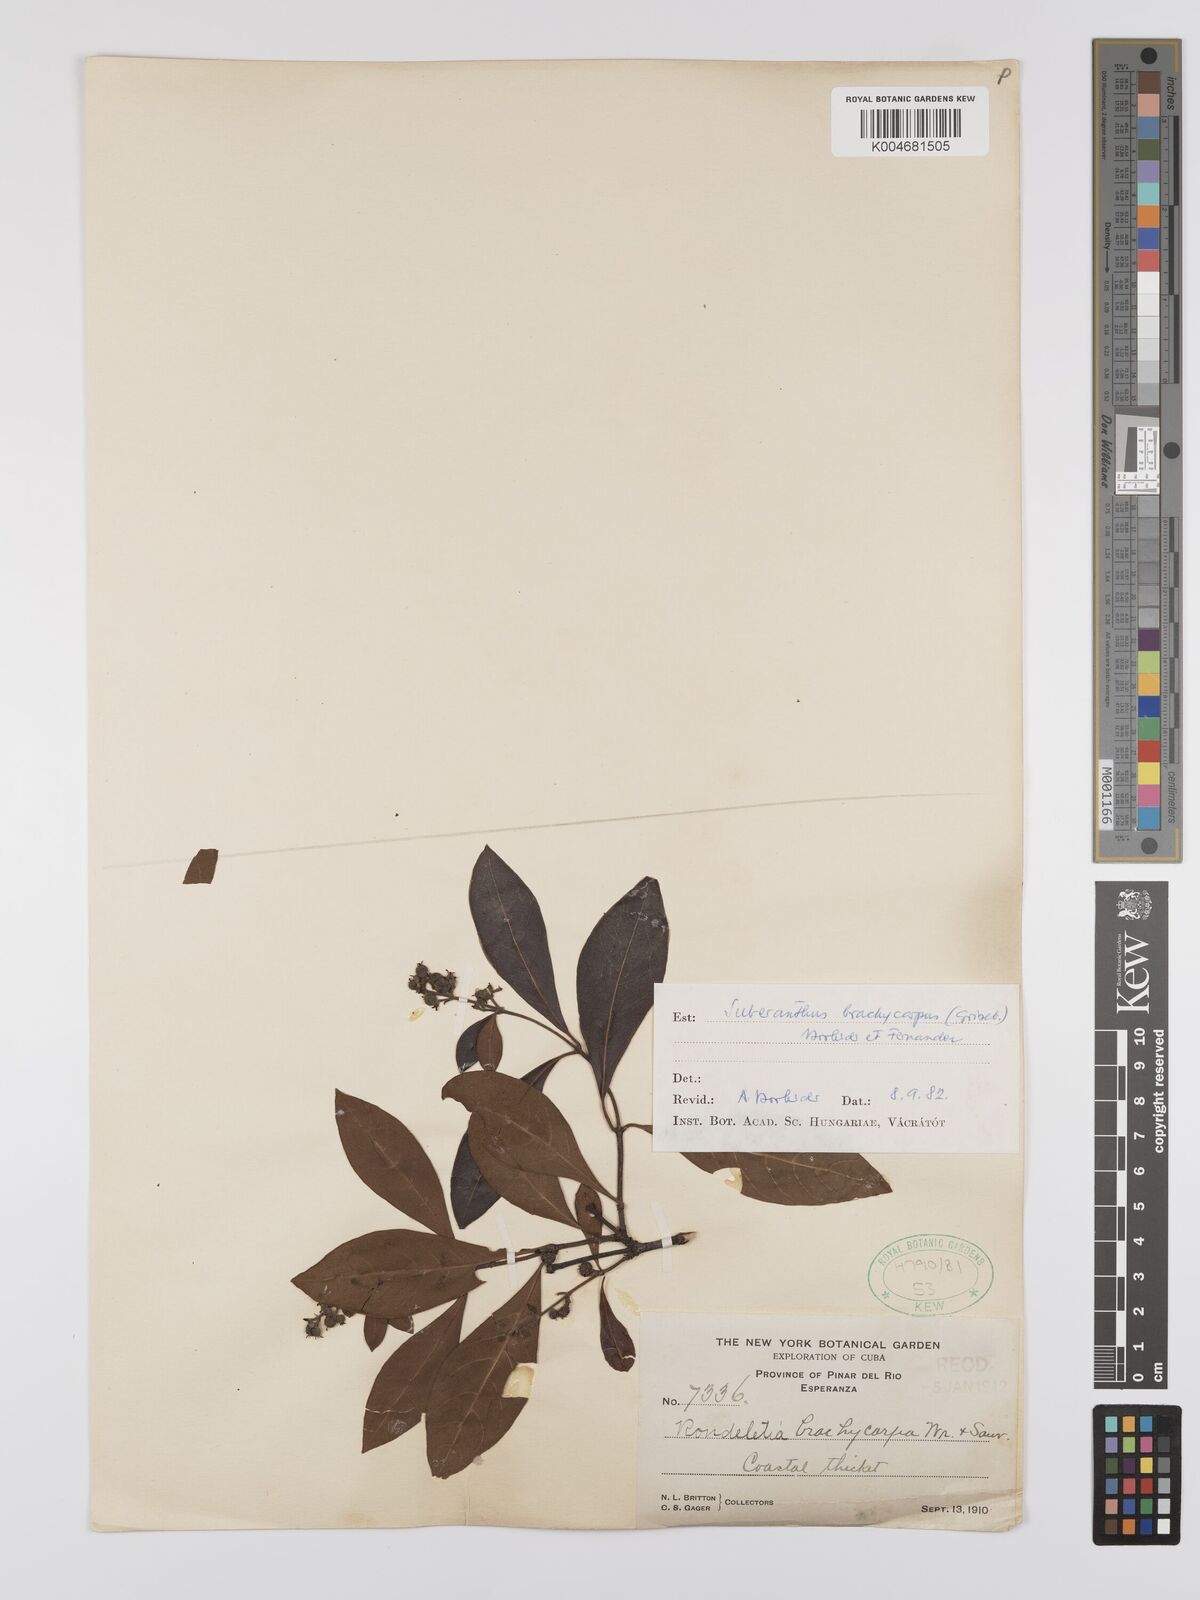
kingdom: Plantae
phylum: Tracheophyta
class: Magnoliopsida
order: Gentianales
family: Rubiaceae
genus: Suberanthus
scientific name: Suberanthus brachycarpus
